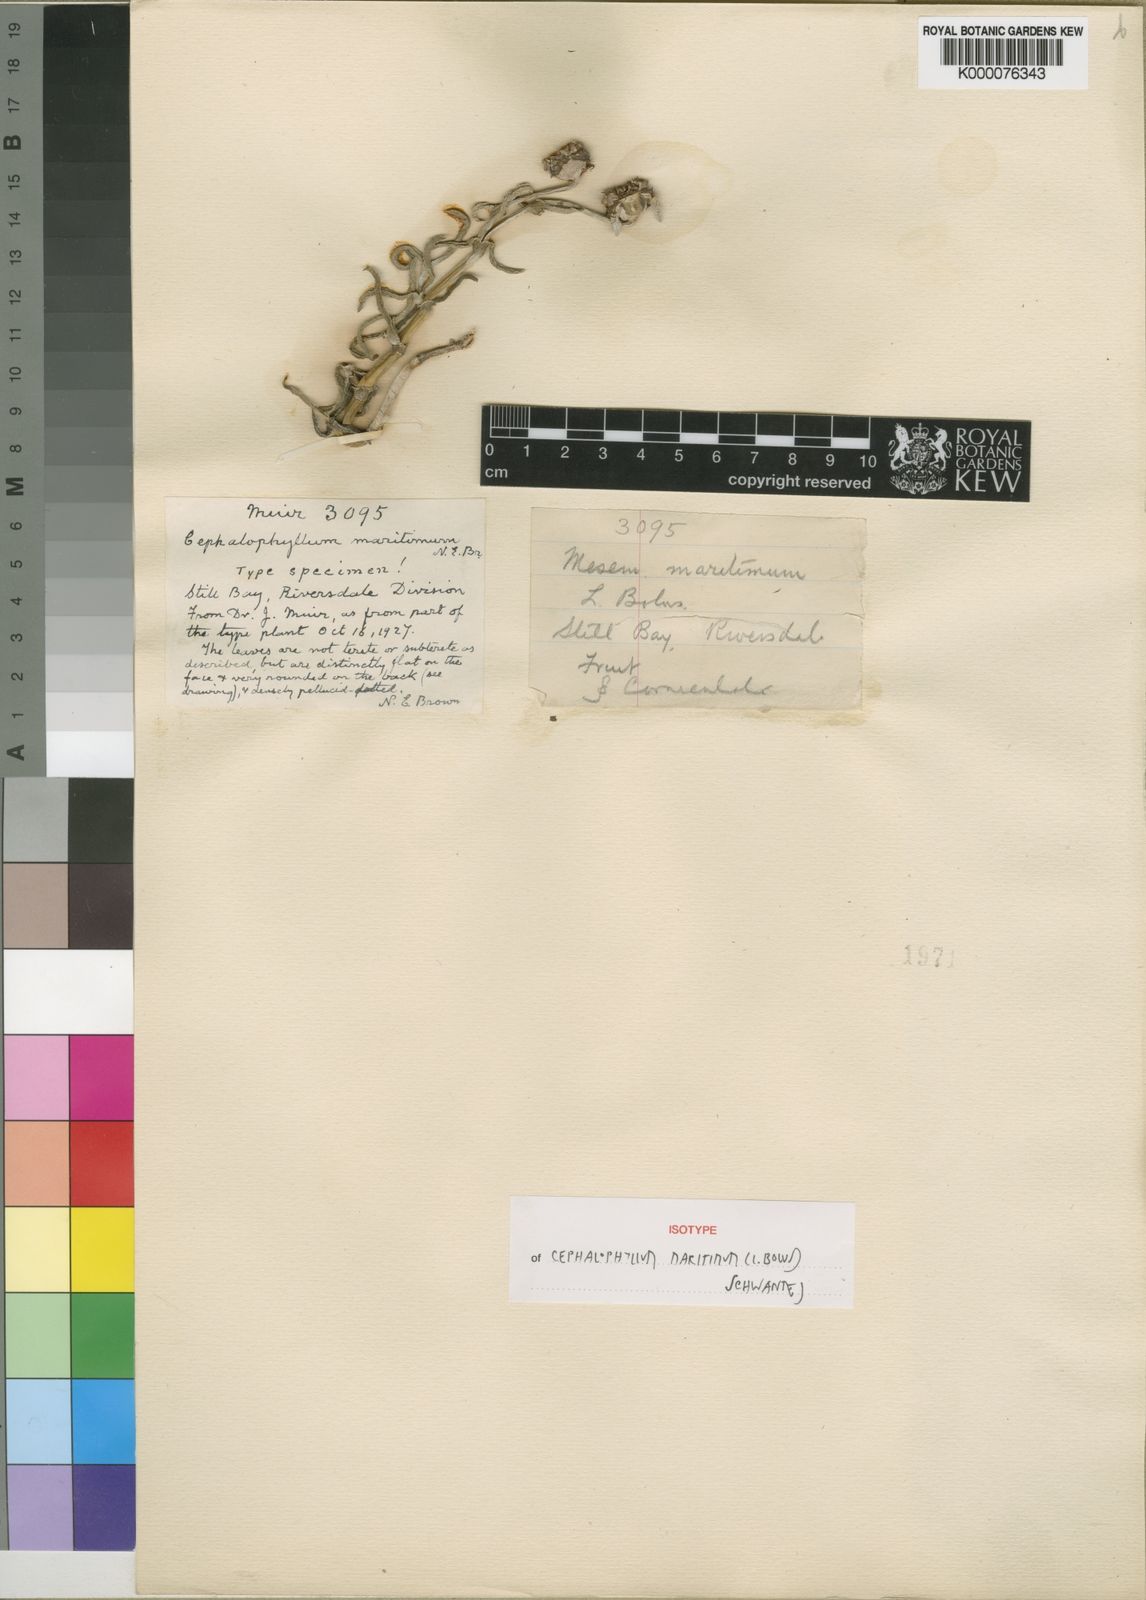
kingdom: Plantae
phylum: Tracheophyta
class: Magnoliopsida
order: Caryophyllales
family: Aizoaceae
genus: Jordaaniella
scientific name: Jordaaniella maritima
